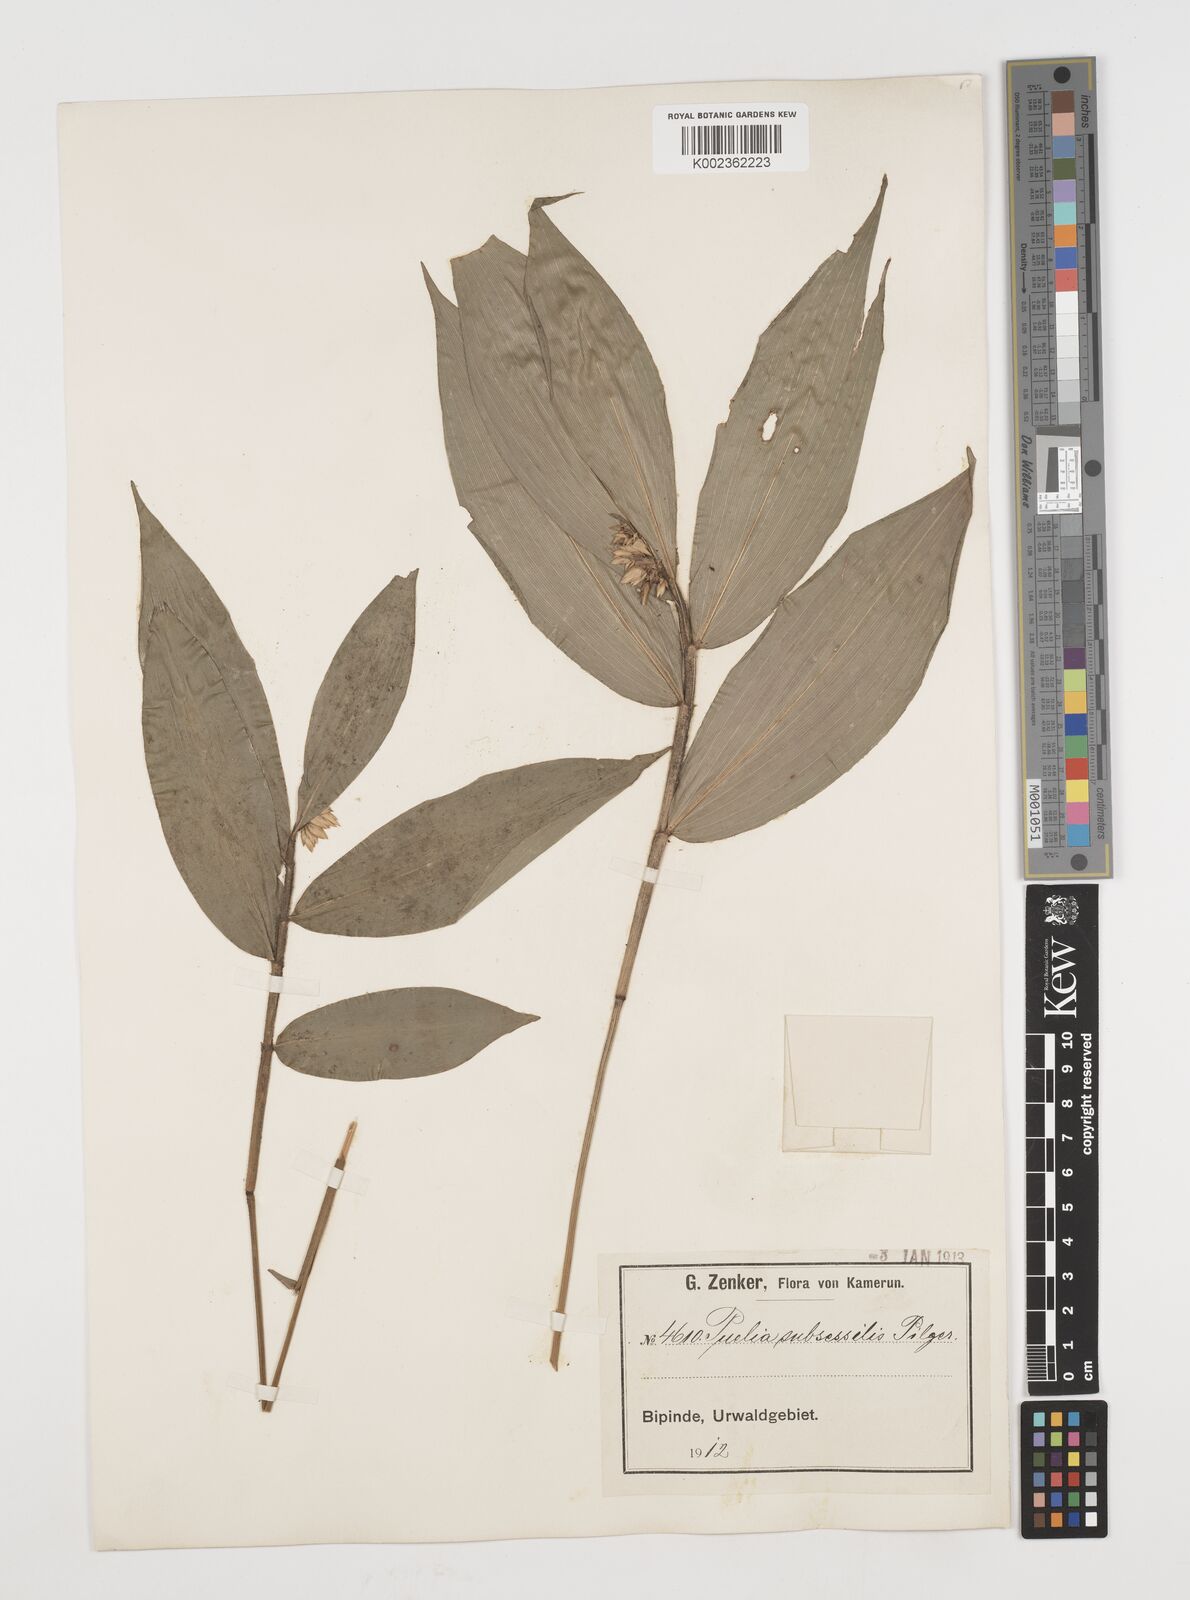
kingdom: Plantae
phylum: Tracheophyta
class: Liliopsida
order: Poales
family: Poaceae
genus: Puelia
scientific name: Puelia ciliata
